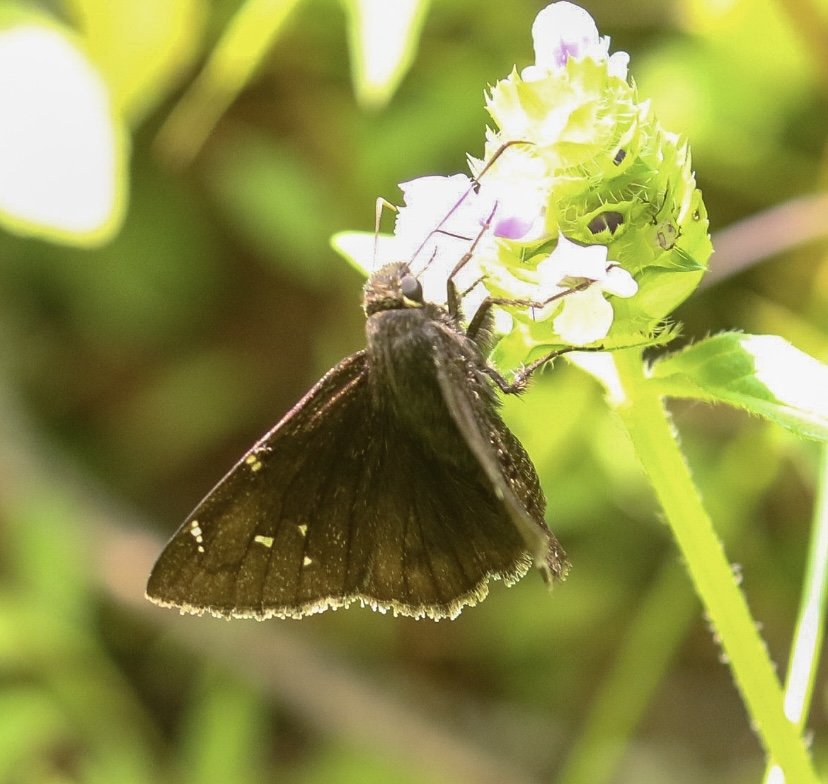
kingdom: Animalia
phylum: Arthropoda
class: Insecta
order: Lepidoptera
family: Hesperiidae
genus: Autochton
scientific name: Autochton
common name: Northern Cloudywing
